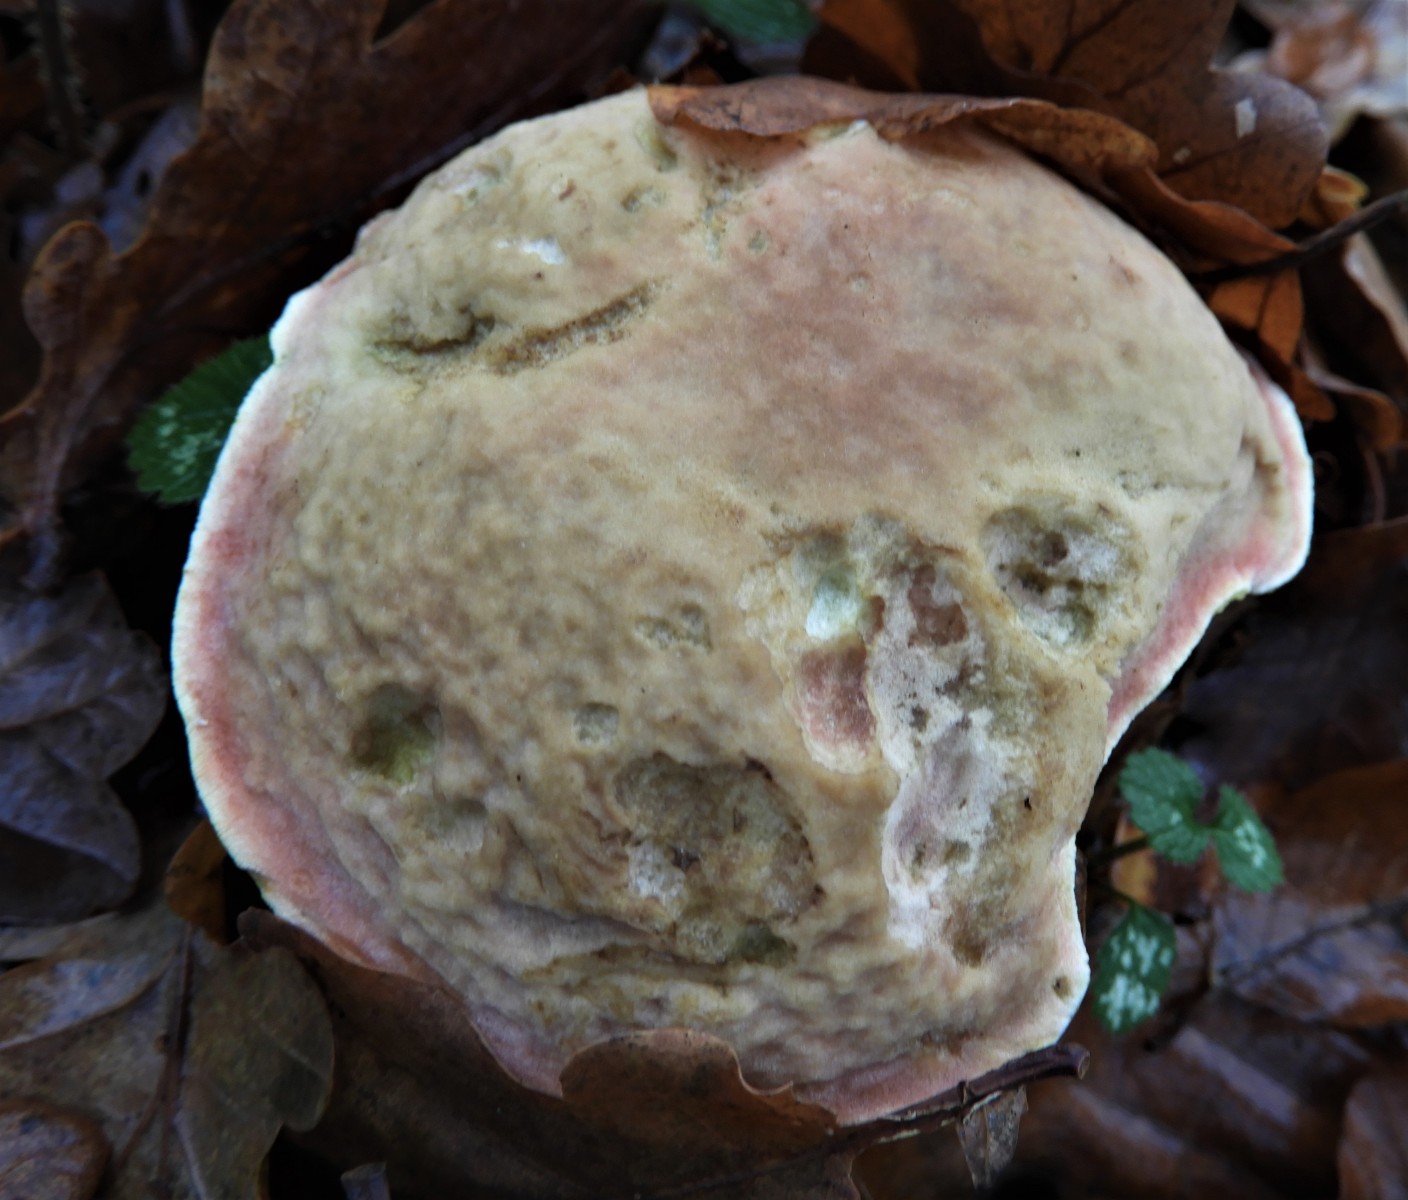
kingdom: Fungi
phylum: Basidiomycota
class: Agaricomycetes
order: Boletales
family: Boletaceae
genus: Xerocomellus
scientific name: Xerocomellus pruinatus
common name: dugget rørhat
